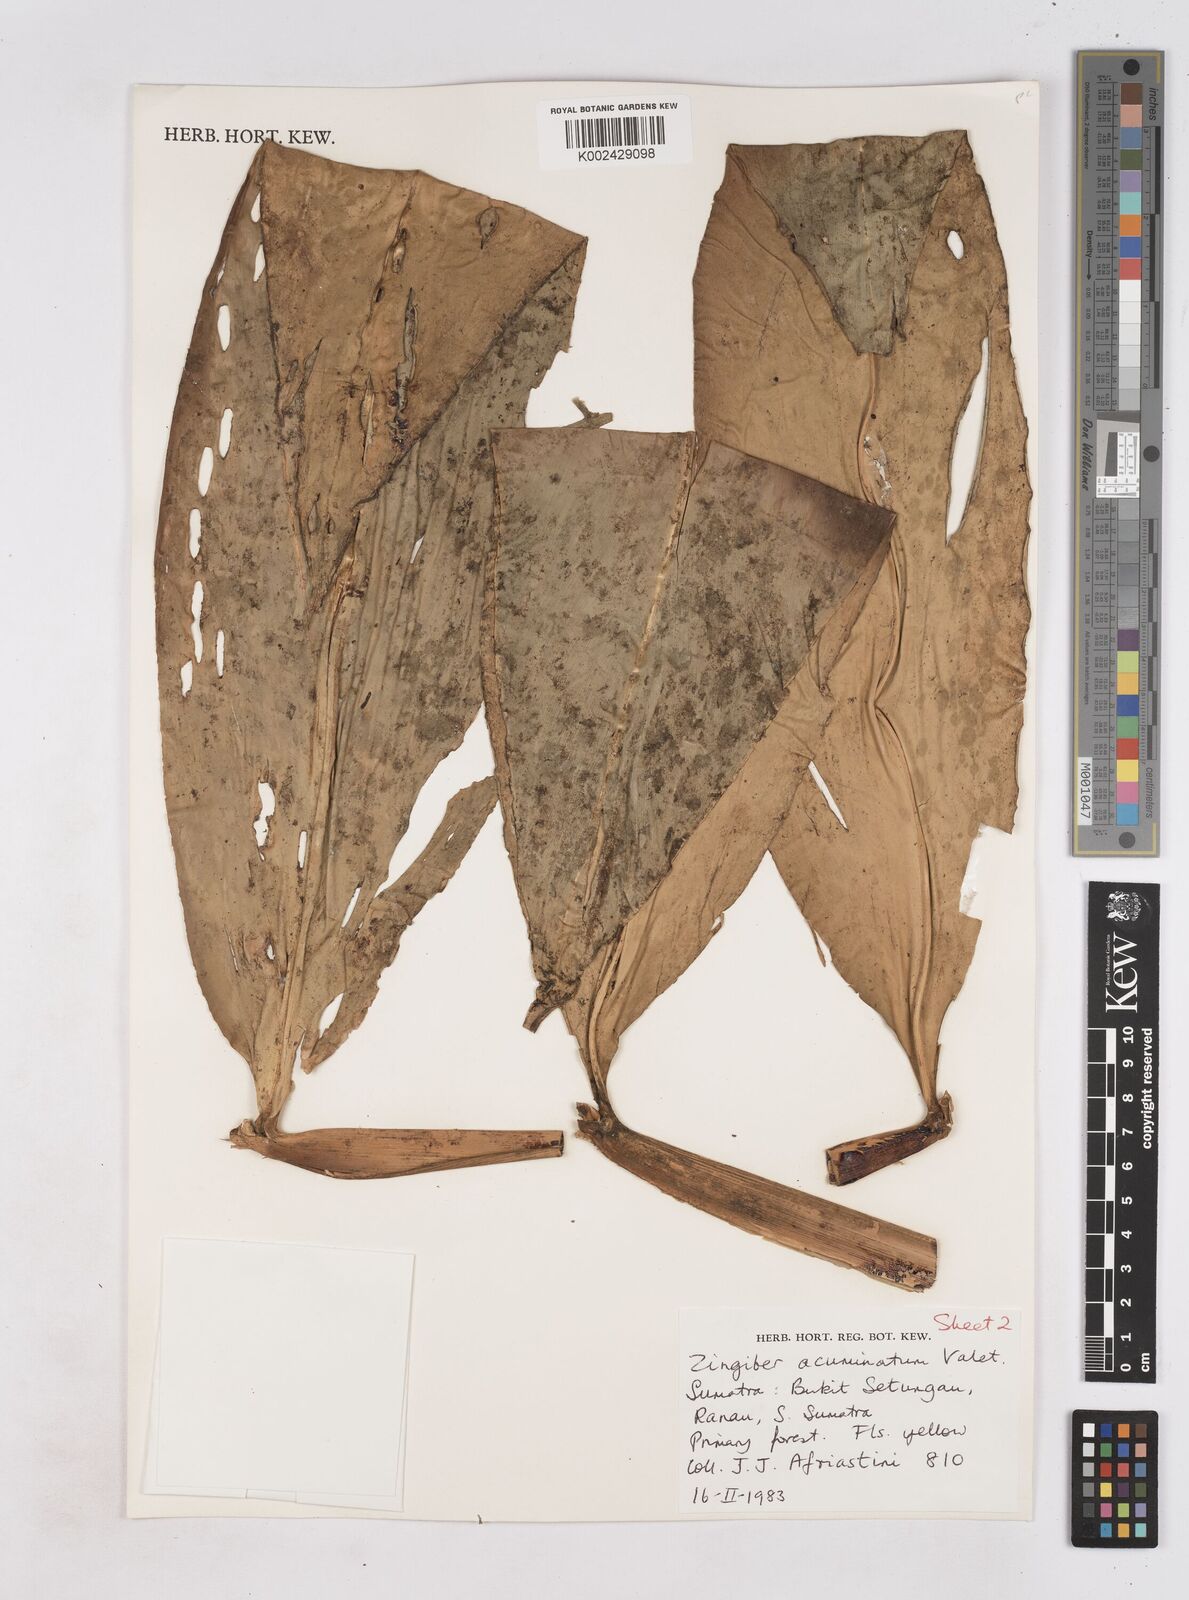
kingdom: Plantae
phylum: Tracheophyta
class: Liliopsida
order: Zingiberales
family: Zingiberaceae
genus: Zingiber
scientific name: Zingiber acuminatum
